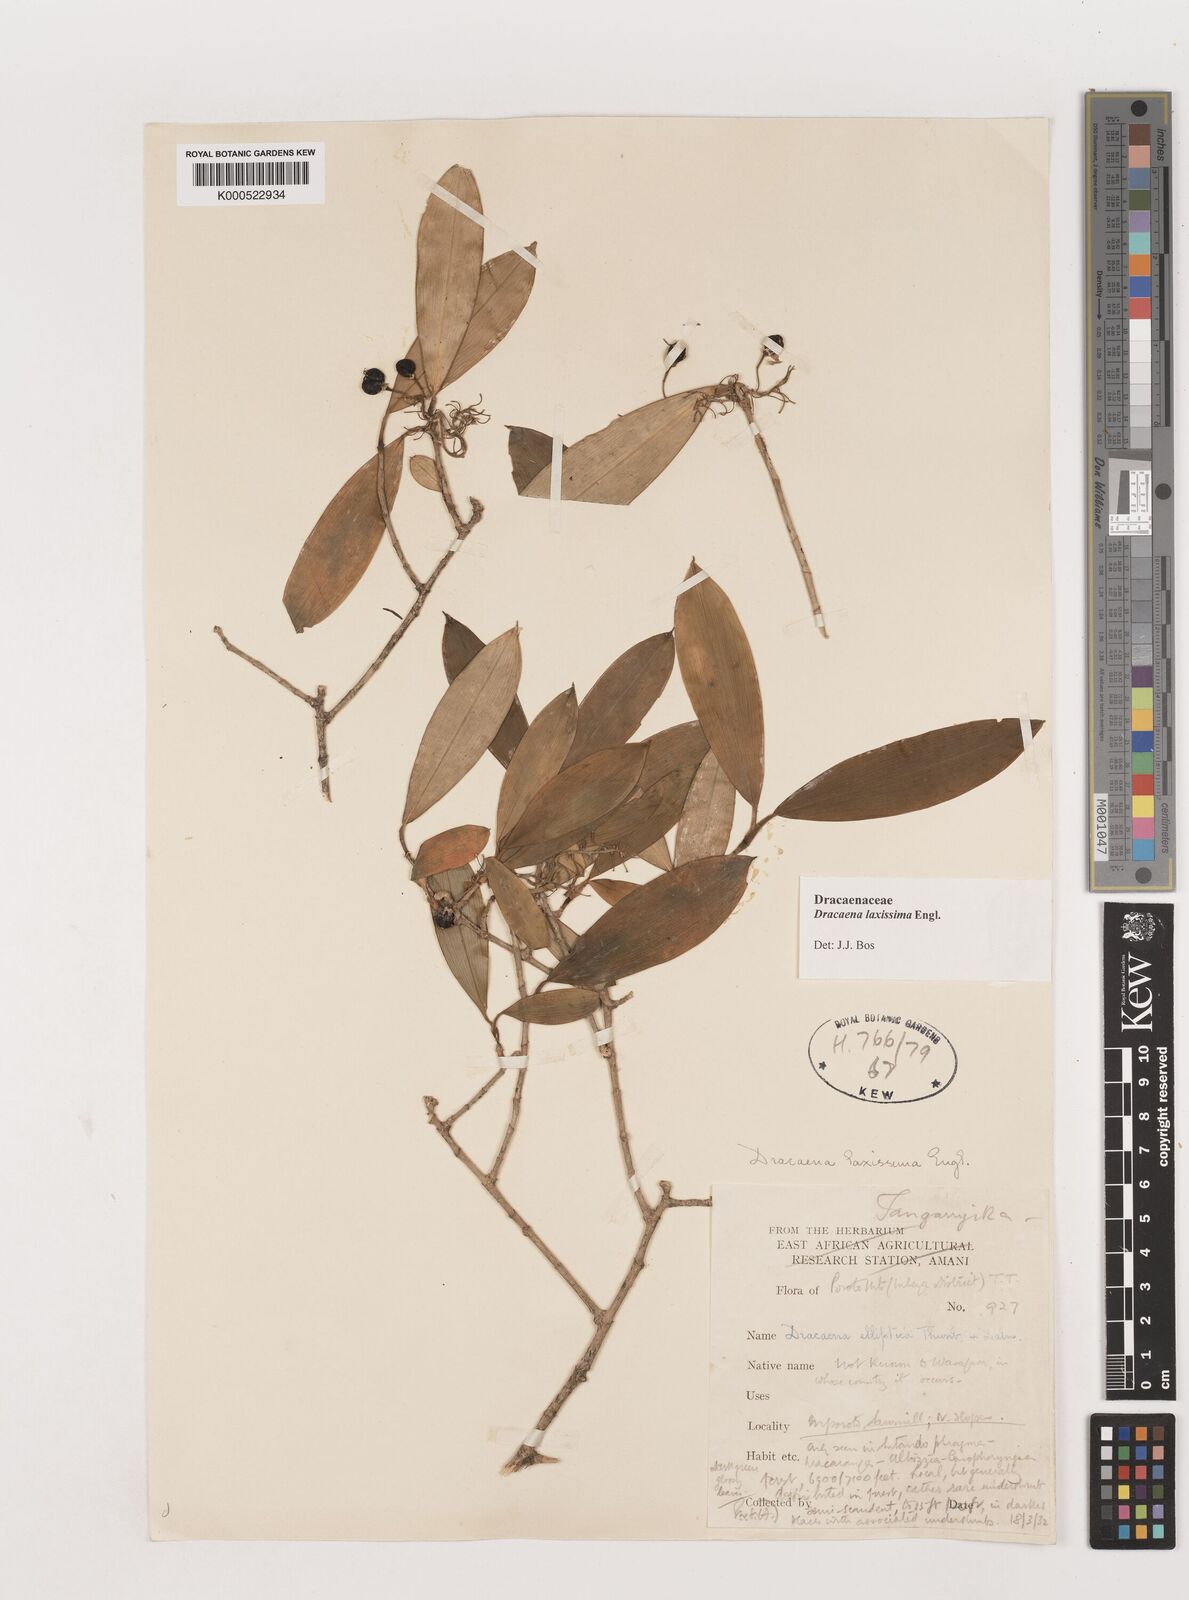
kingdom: Plantae
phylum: Tracheophyta
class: Liliopsida
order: Asparagales
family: Asparagaceae
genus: Dracaena
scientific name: Dracaena laxissima
